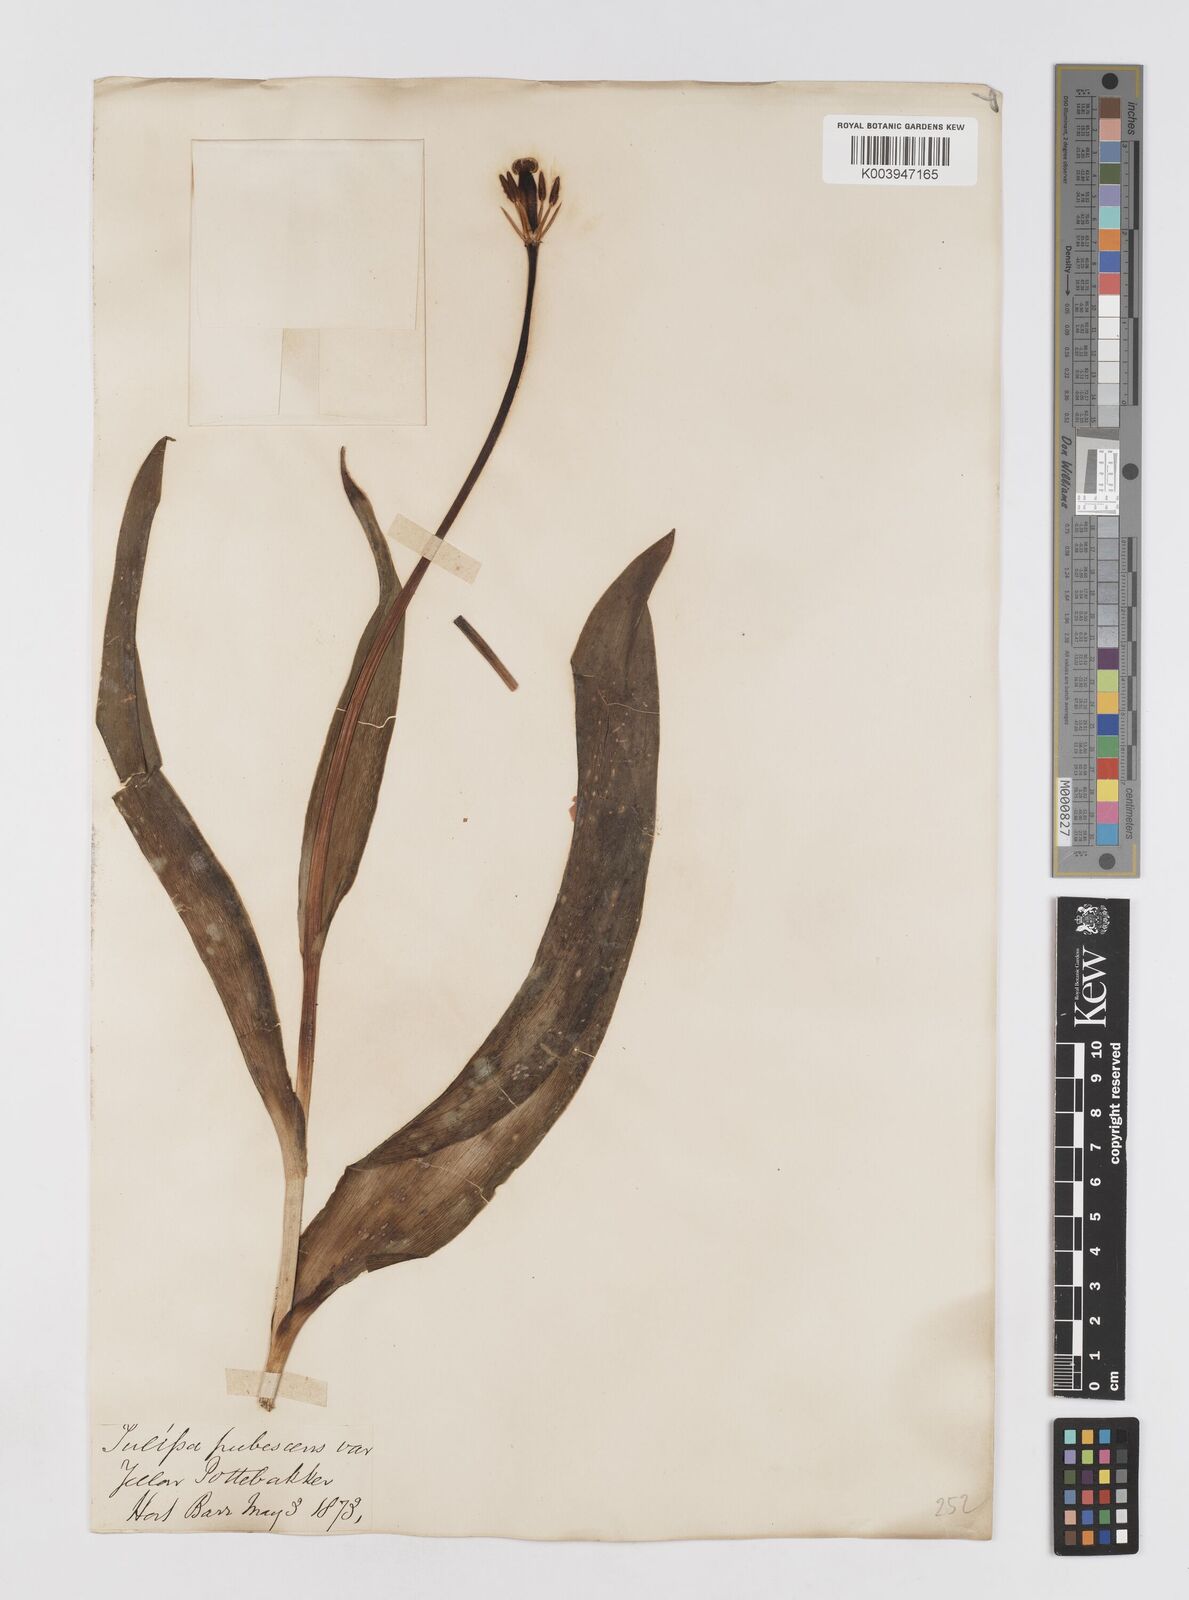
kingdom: Plantae
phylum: Tracheophyta
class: Liliopsida
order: Liliales
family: Liliaceae
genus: Tulipa
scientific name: Tulipa gesneriana
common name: Garden tulip
